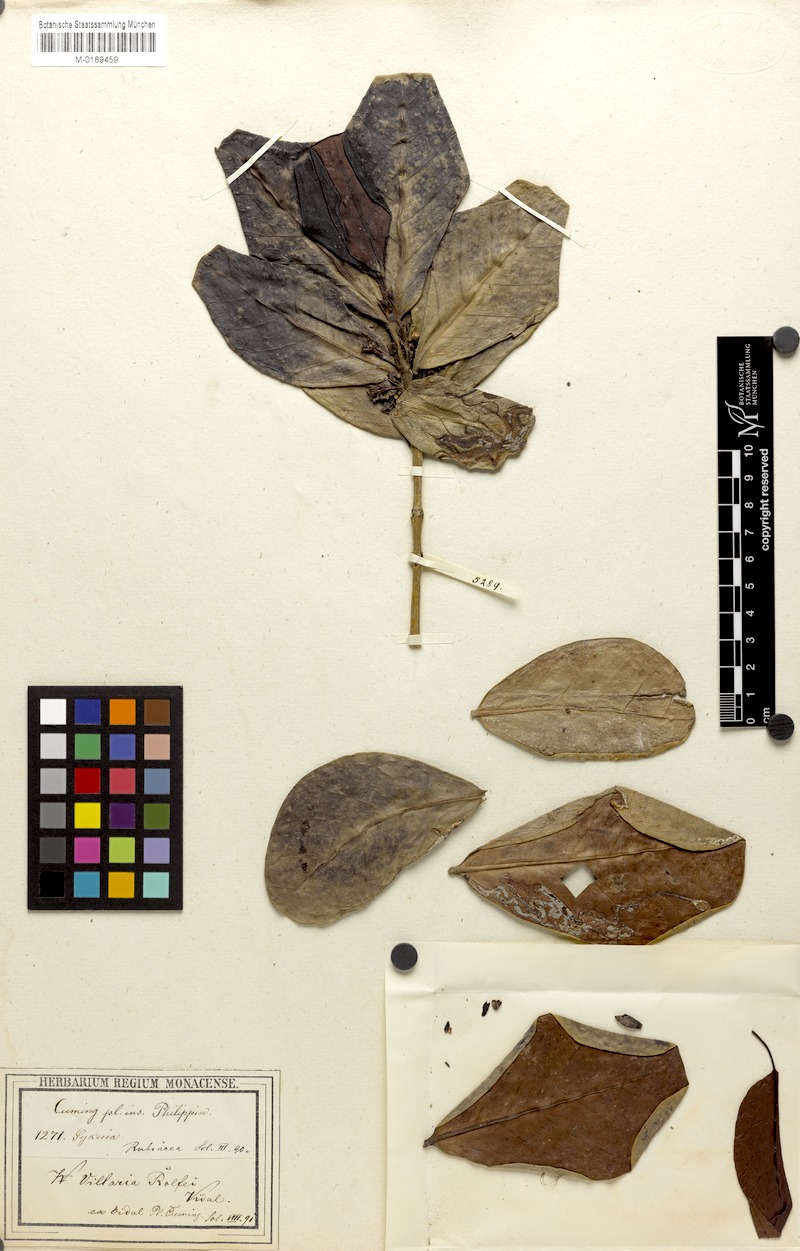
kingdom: Plantae
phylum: Tracheophyta
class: Magnoliopsida
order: Gentianales
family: Rubiaceae
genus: Villaria
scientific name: Villaria odorata
